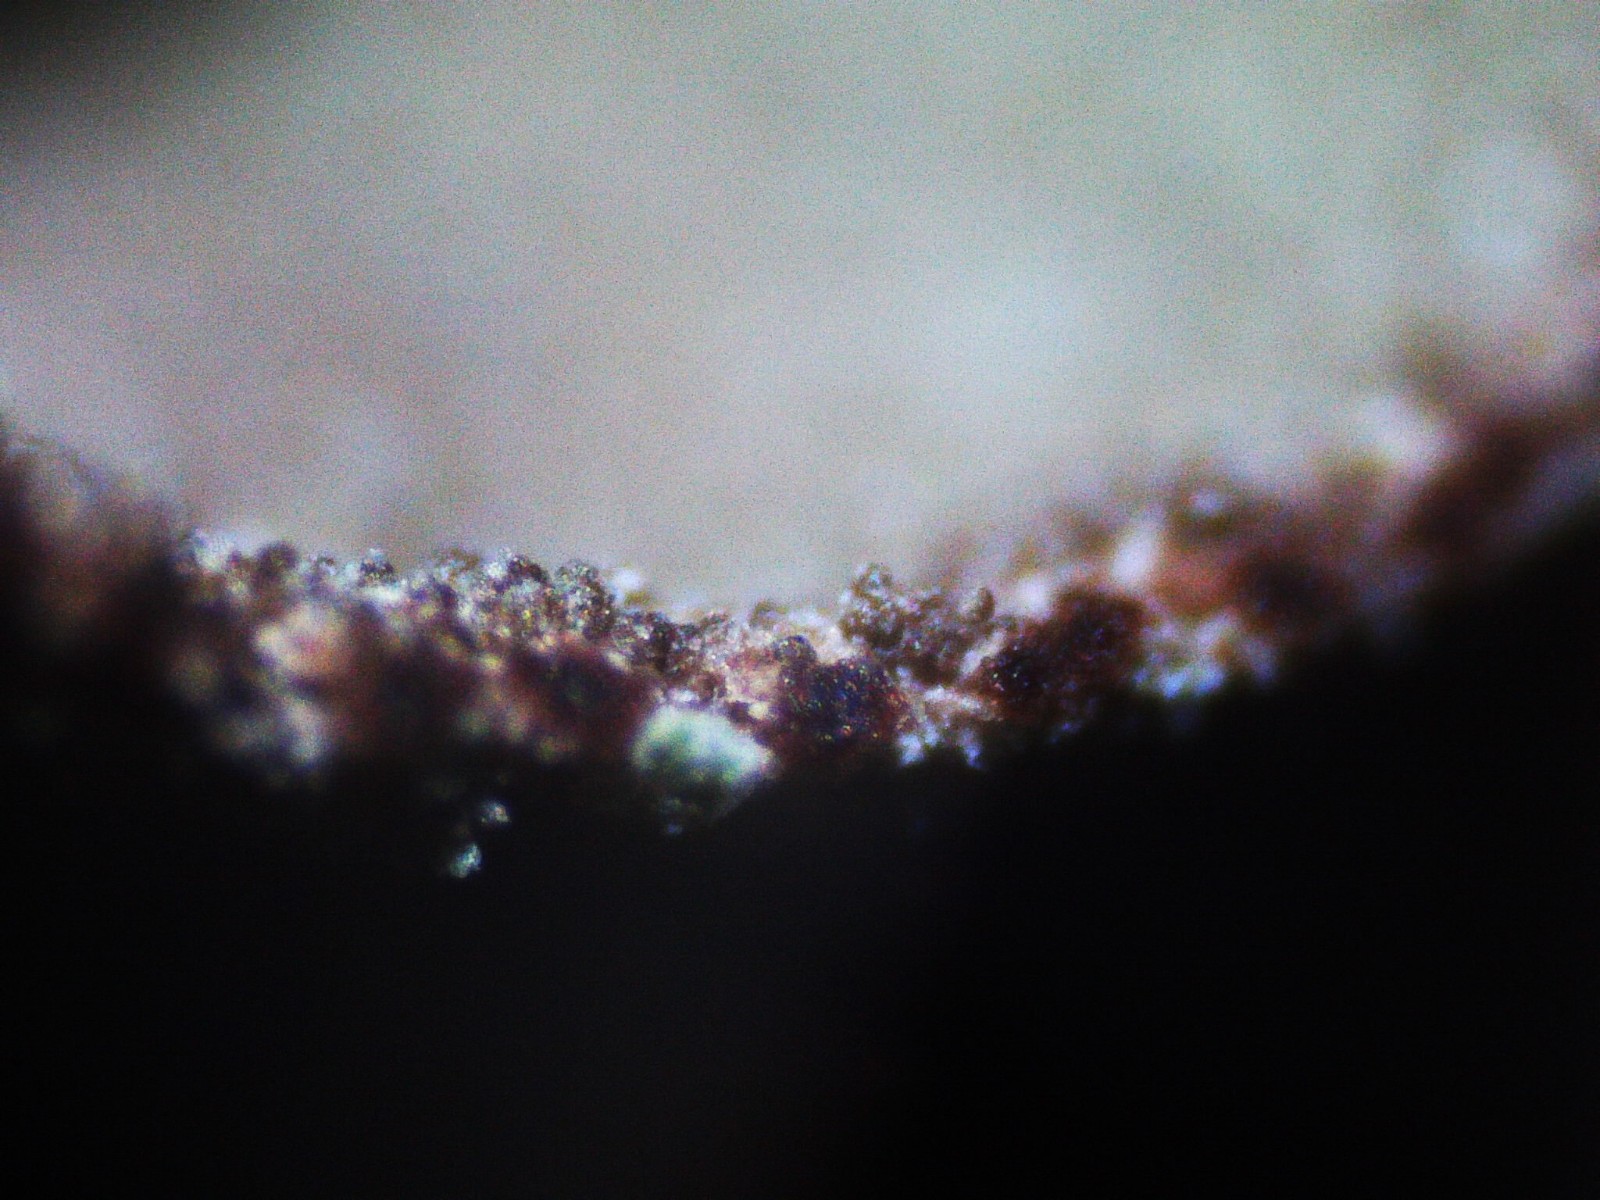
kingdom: Fungi
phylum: Ascomycota
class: Lecanoromycetes
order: Lecanorales
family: Cladoniaceae
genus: Cladonia
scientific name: Cladonia
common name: brungrøn bægerlav
